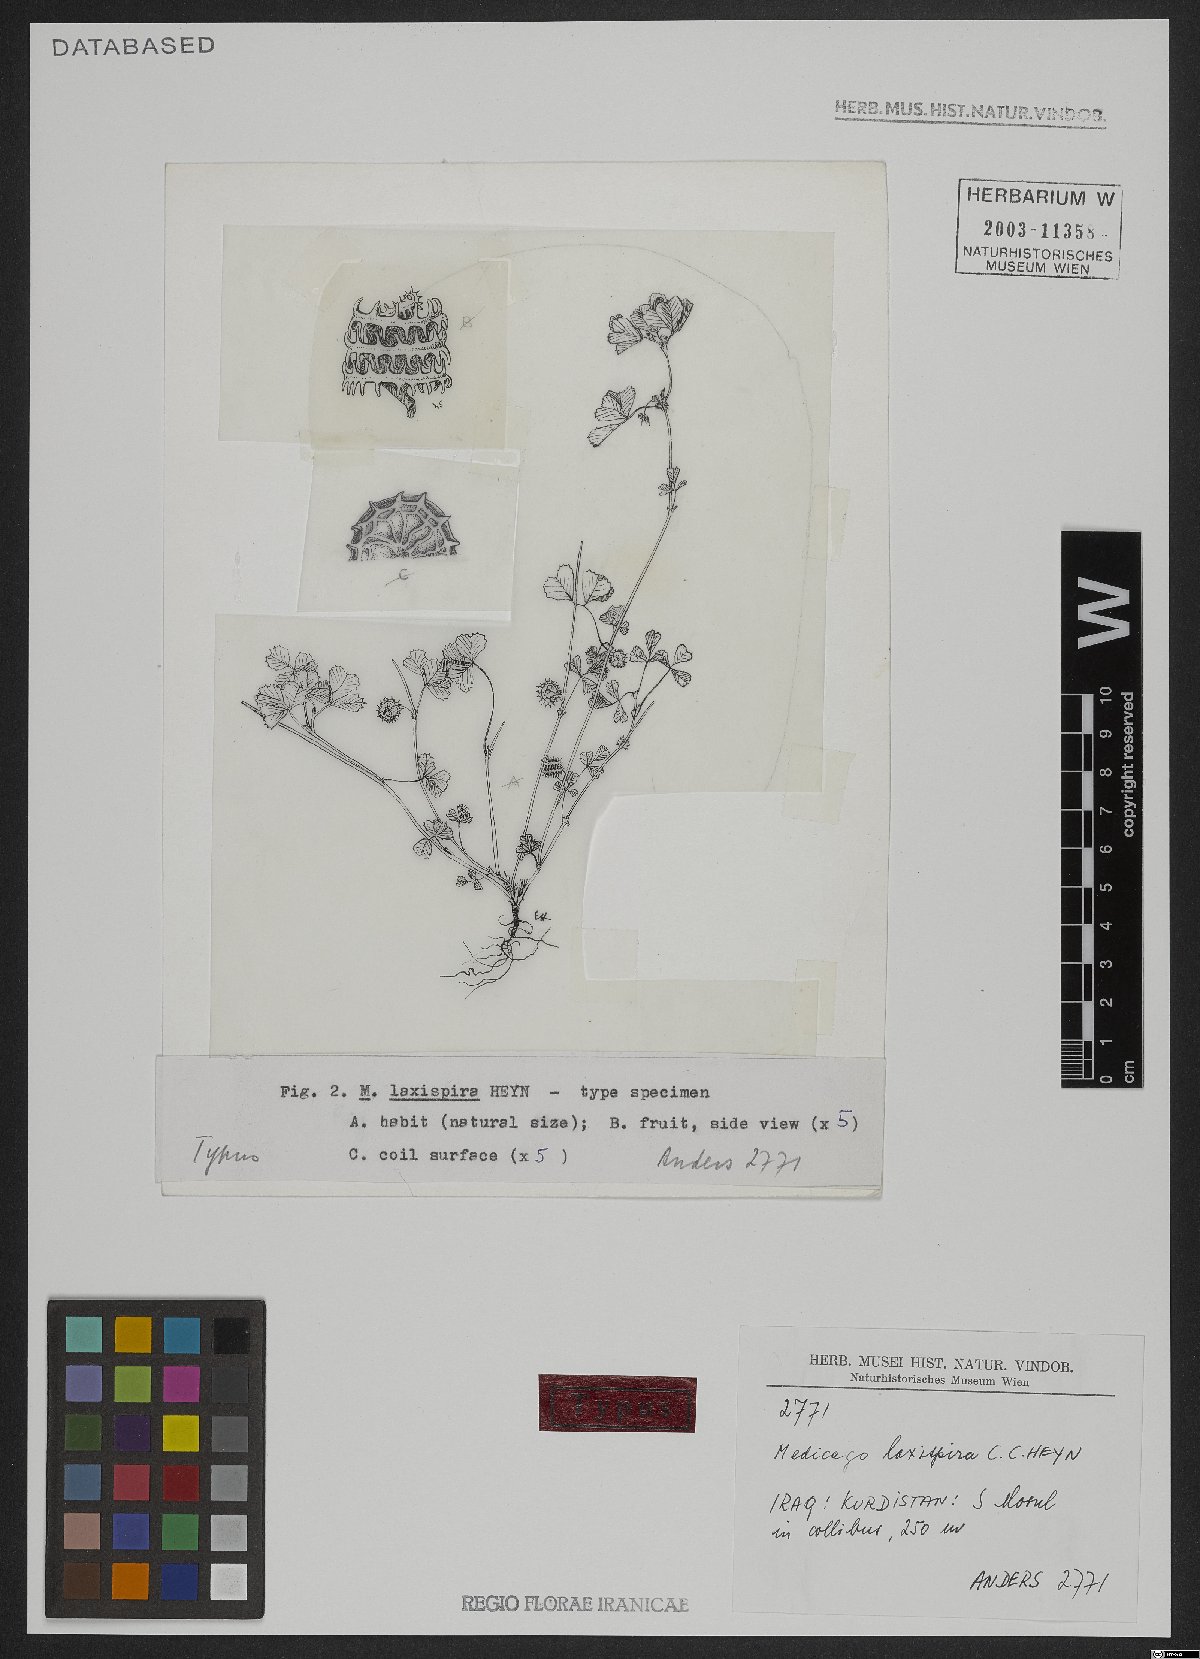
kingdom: Plantae
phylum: Tracheophyta
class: Magnoliopsida
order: Fabales
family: Fabaceae
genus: Medicago
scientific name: Medicago laxispira
